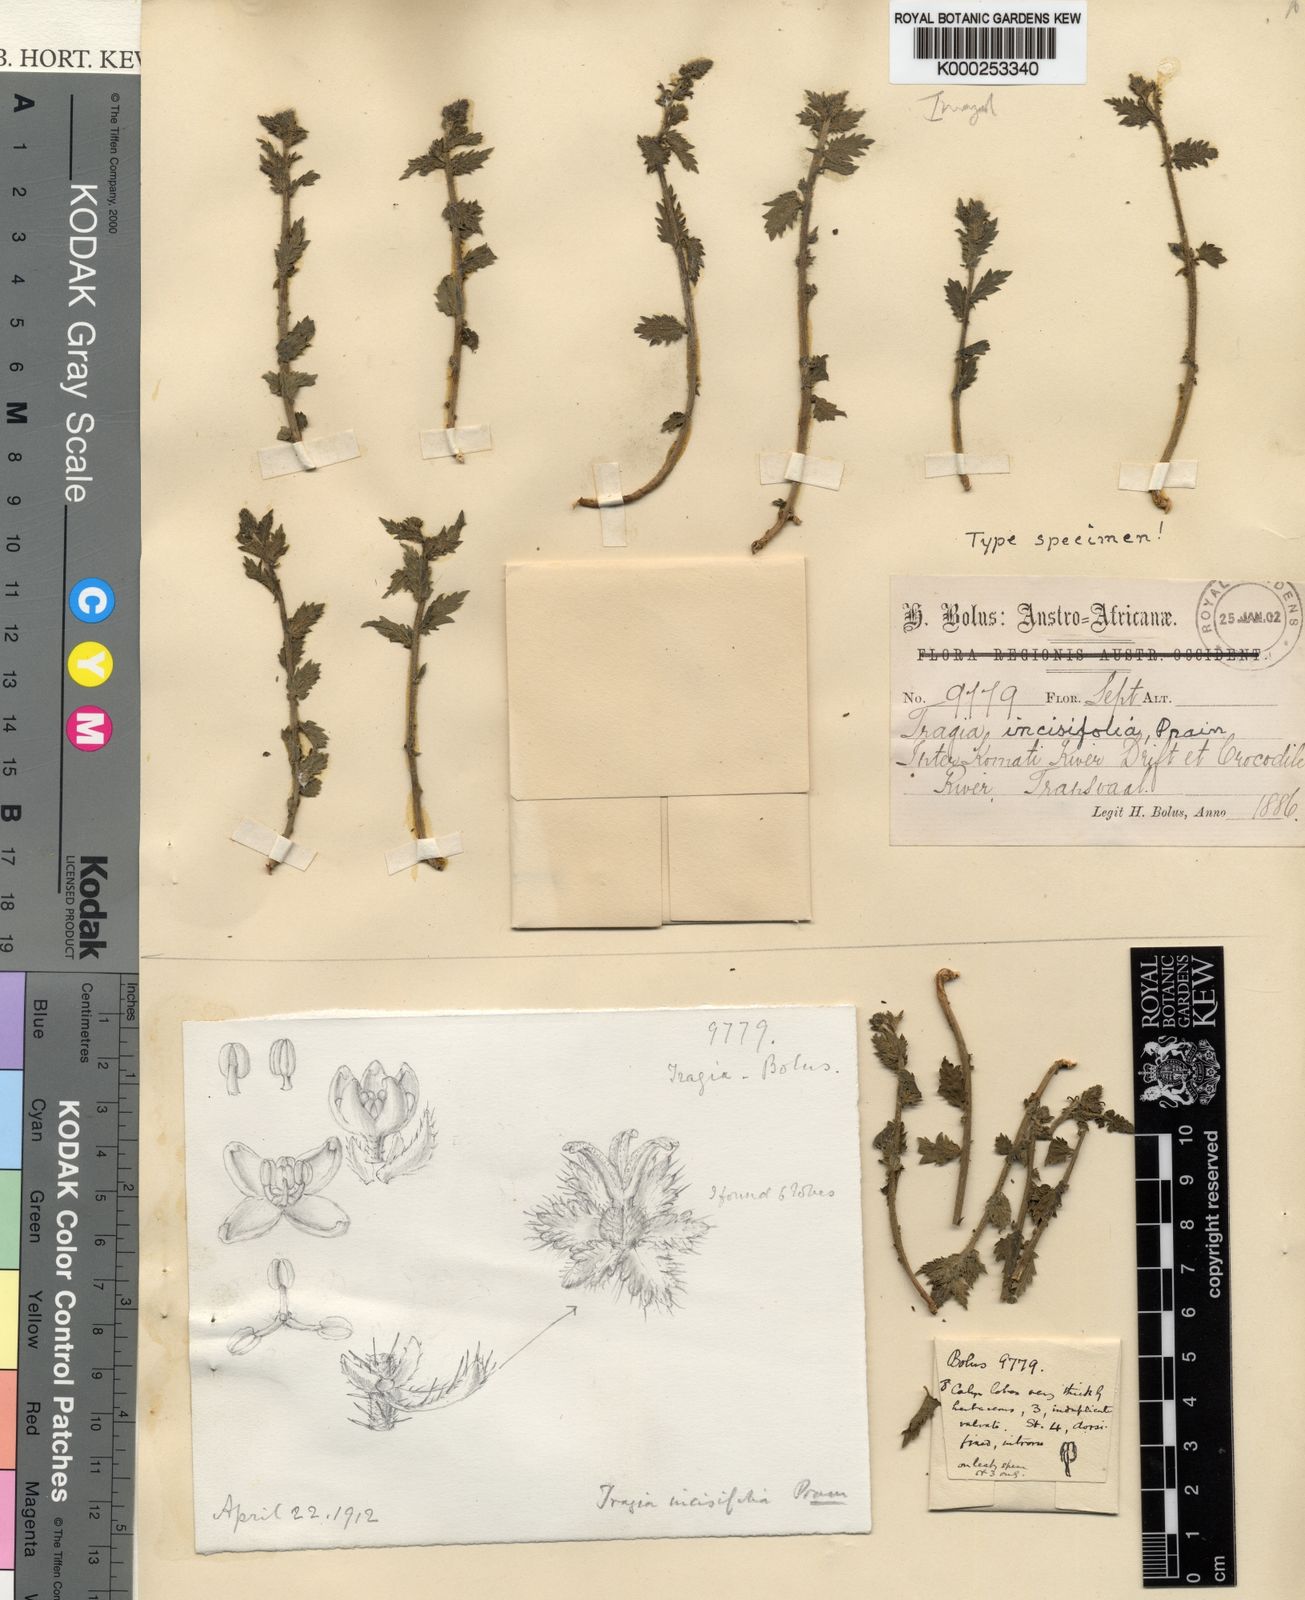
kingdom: Plantae
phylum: Tracheophyta
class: Magnoliopsida
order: Malpighiales
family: Euphorbiaceae
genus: Tragia
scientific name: Tragia incisifolia
